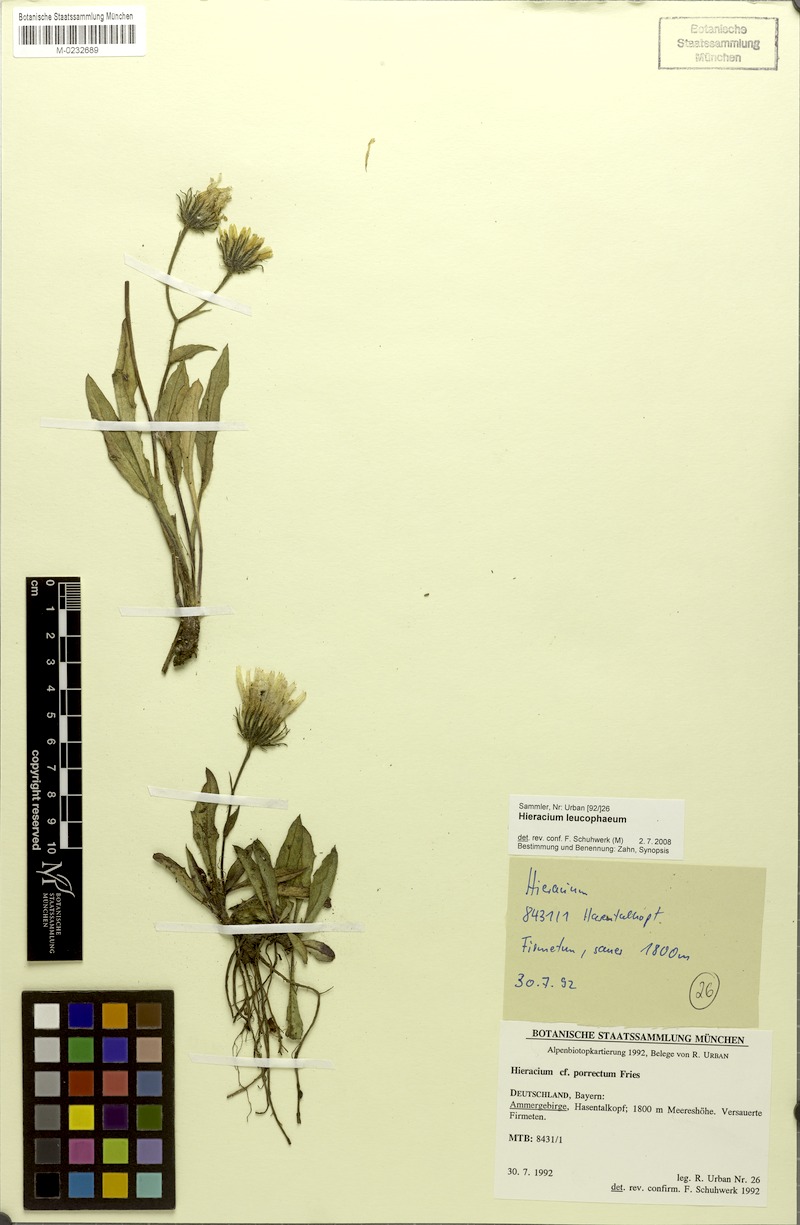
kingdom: Plantae
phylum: Tracheophyta
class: Magnoliopsida
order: Asterales
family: Asteraceae
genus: Hieracium
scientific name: Hieracium leucophaeum
